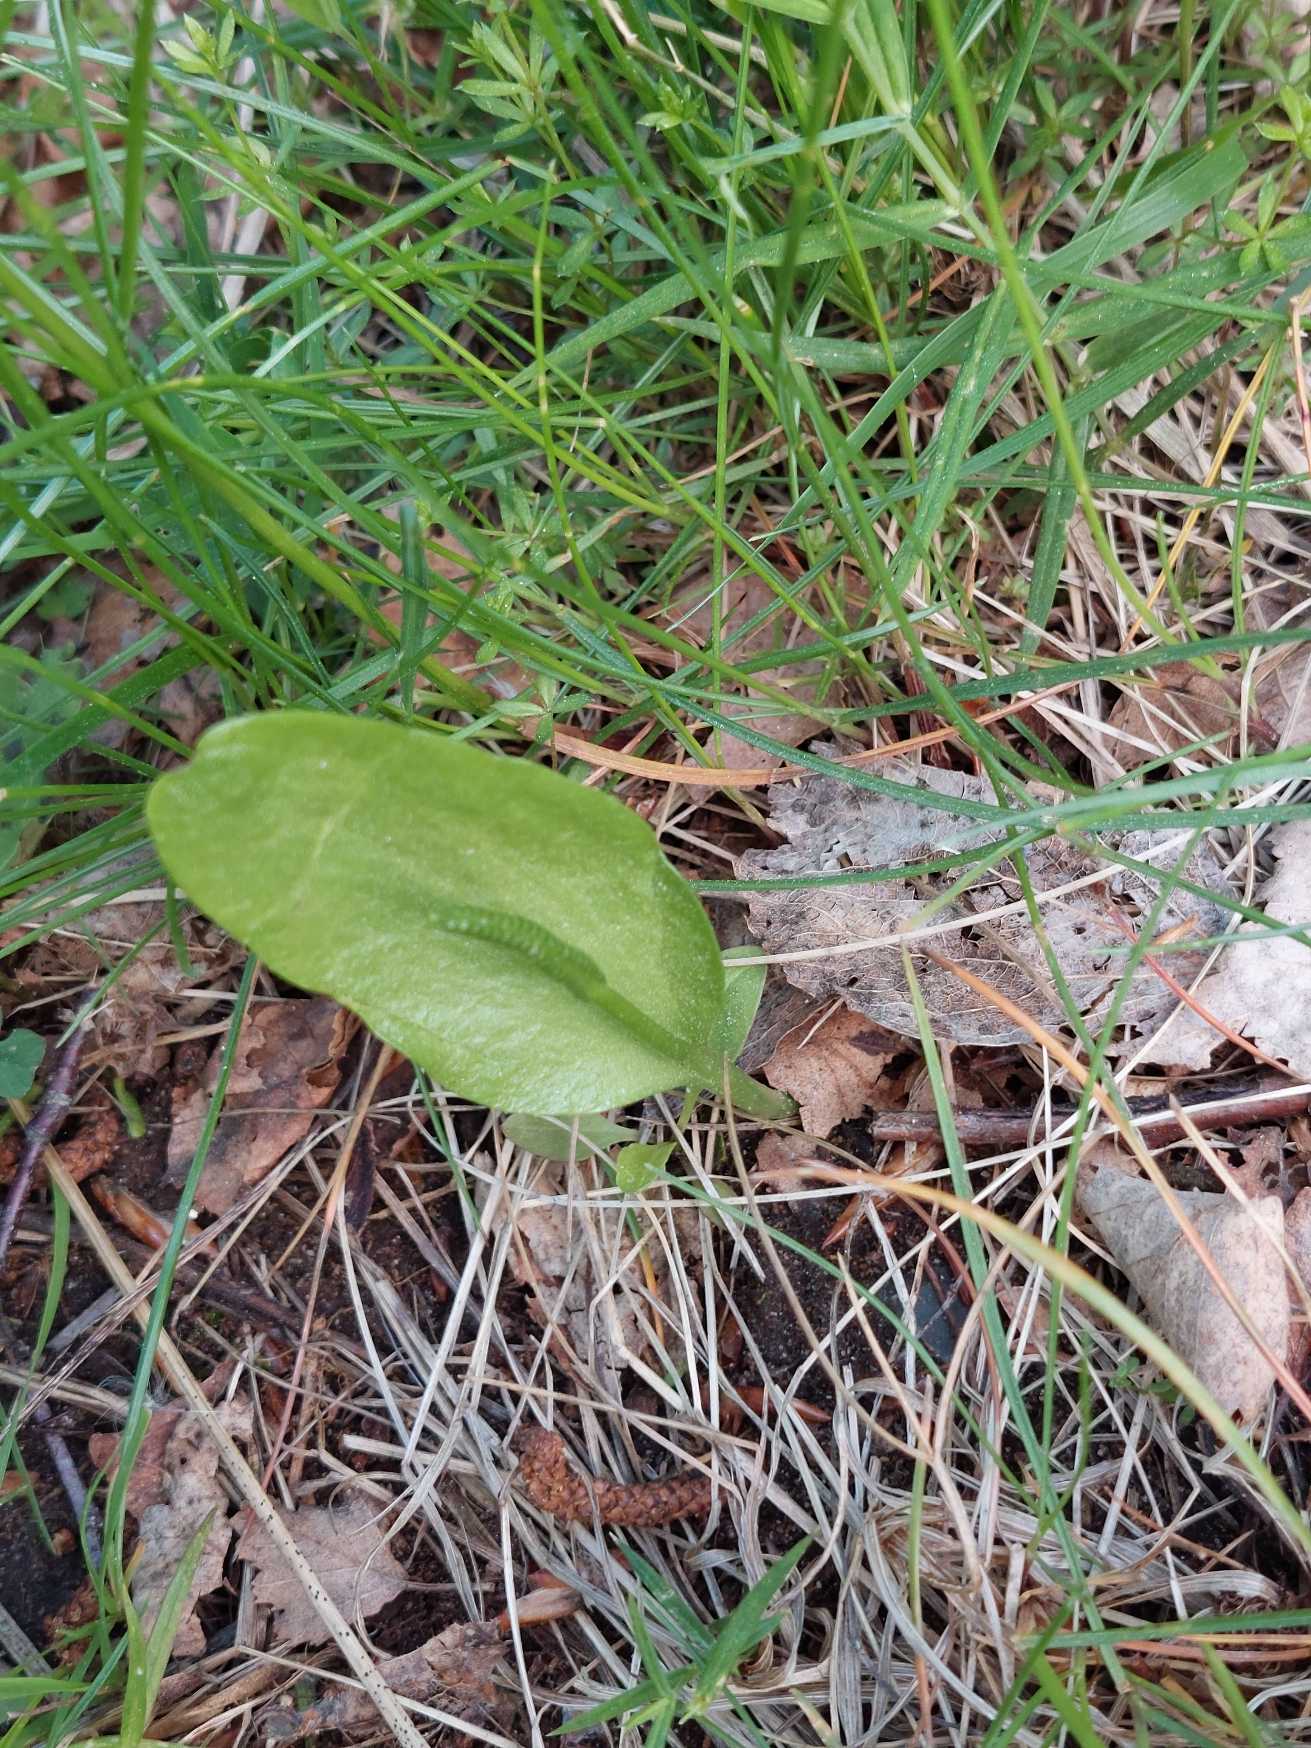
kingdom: Plantae
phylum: Tracheophyta
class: Polypodiopsida
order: Ophioglossales
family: Ophioglossaceae
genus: Ophioglossum
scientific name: Ophioglossum vulgatum
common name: Slangetunge
